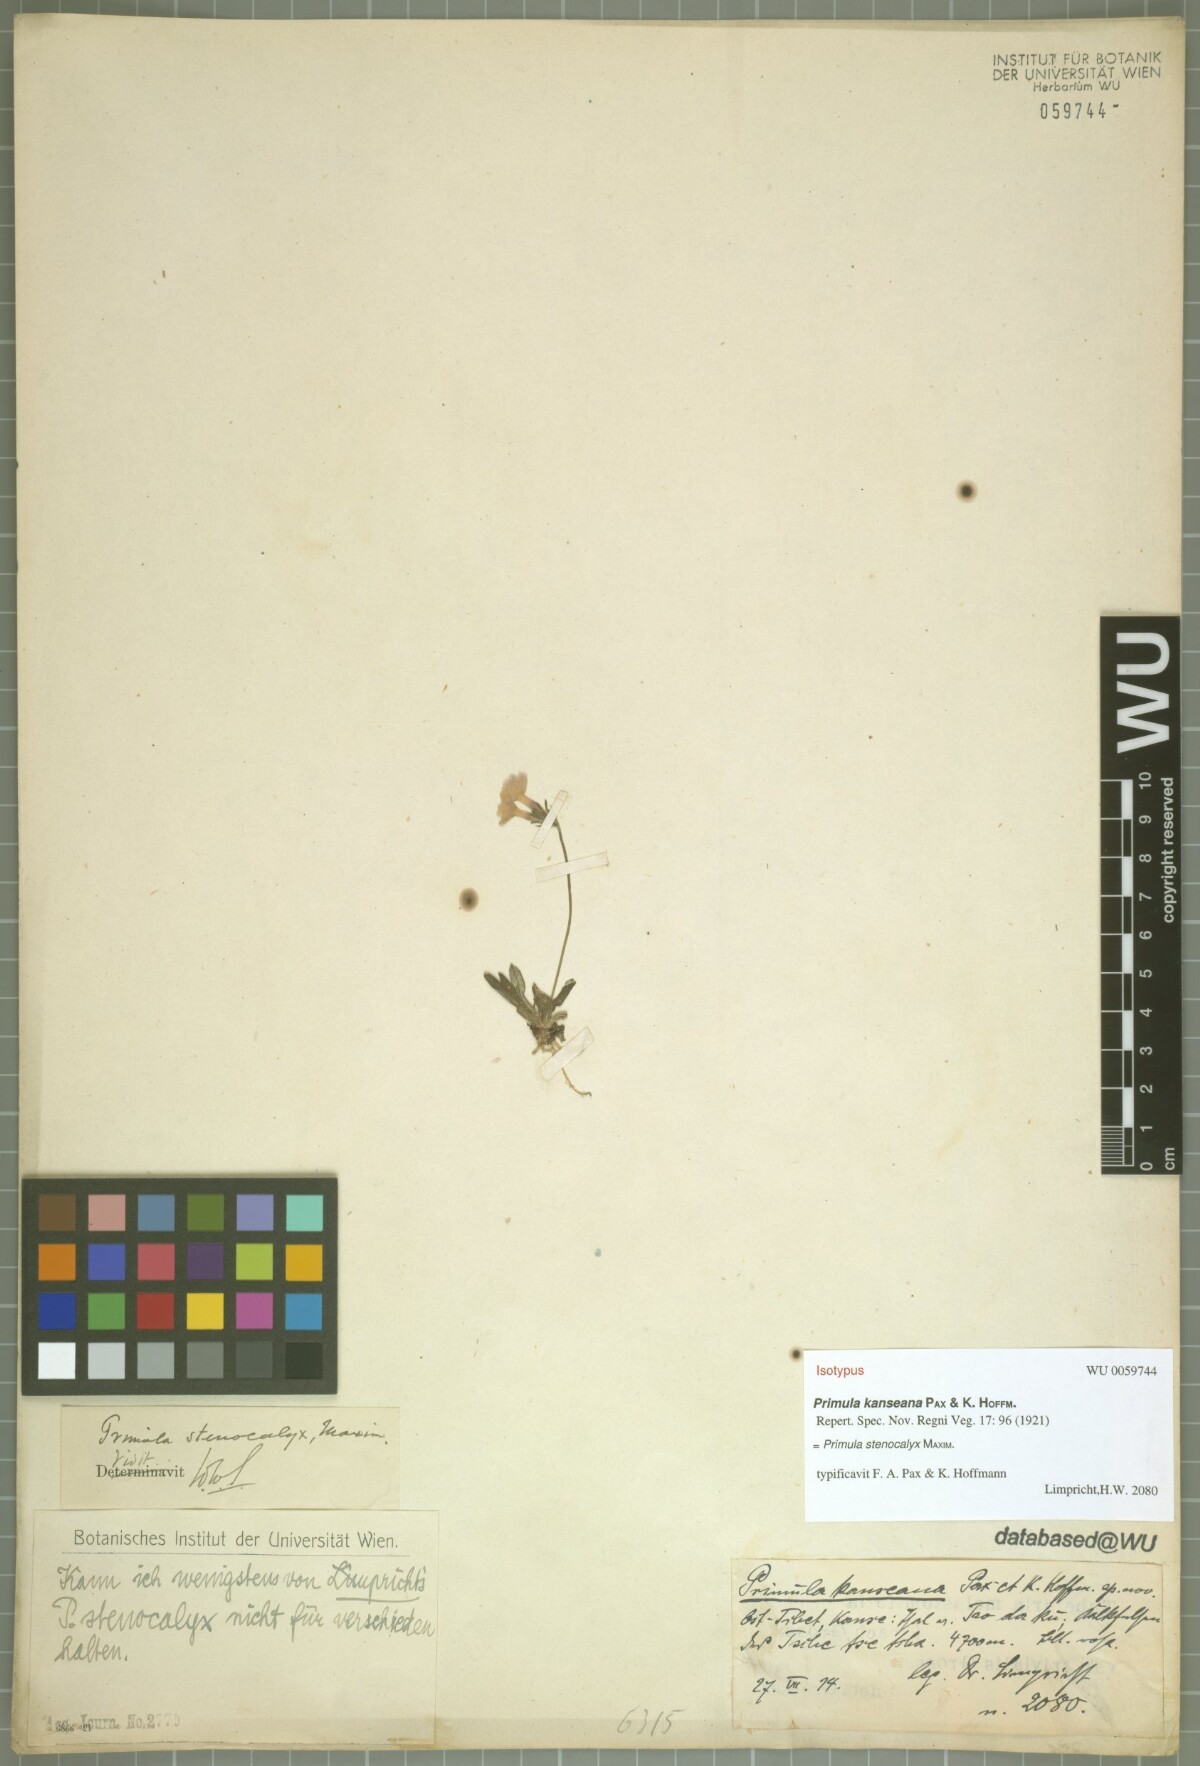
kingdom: Plantae
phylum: Tracheophyta
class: Magnoliopsida
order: Ericales
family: Primulaceae
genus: Primula
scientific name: Primula stenocalyx
